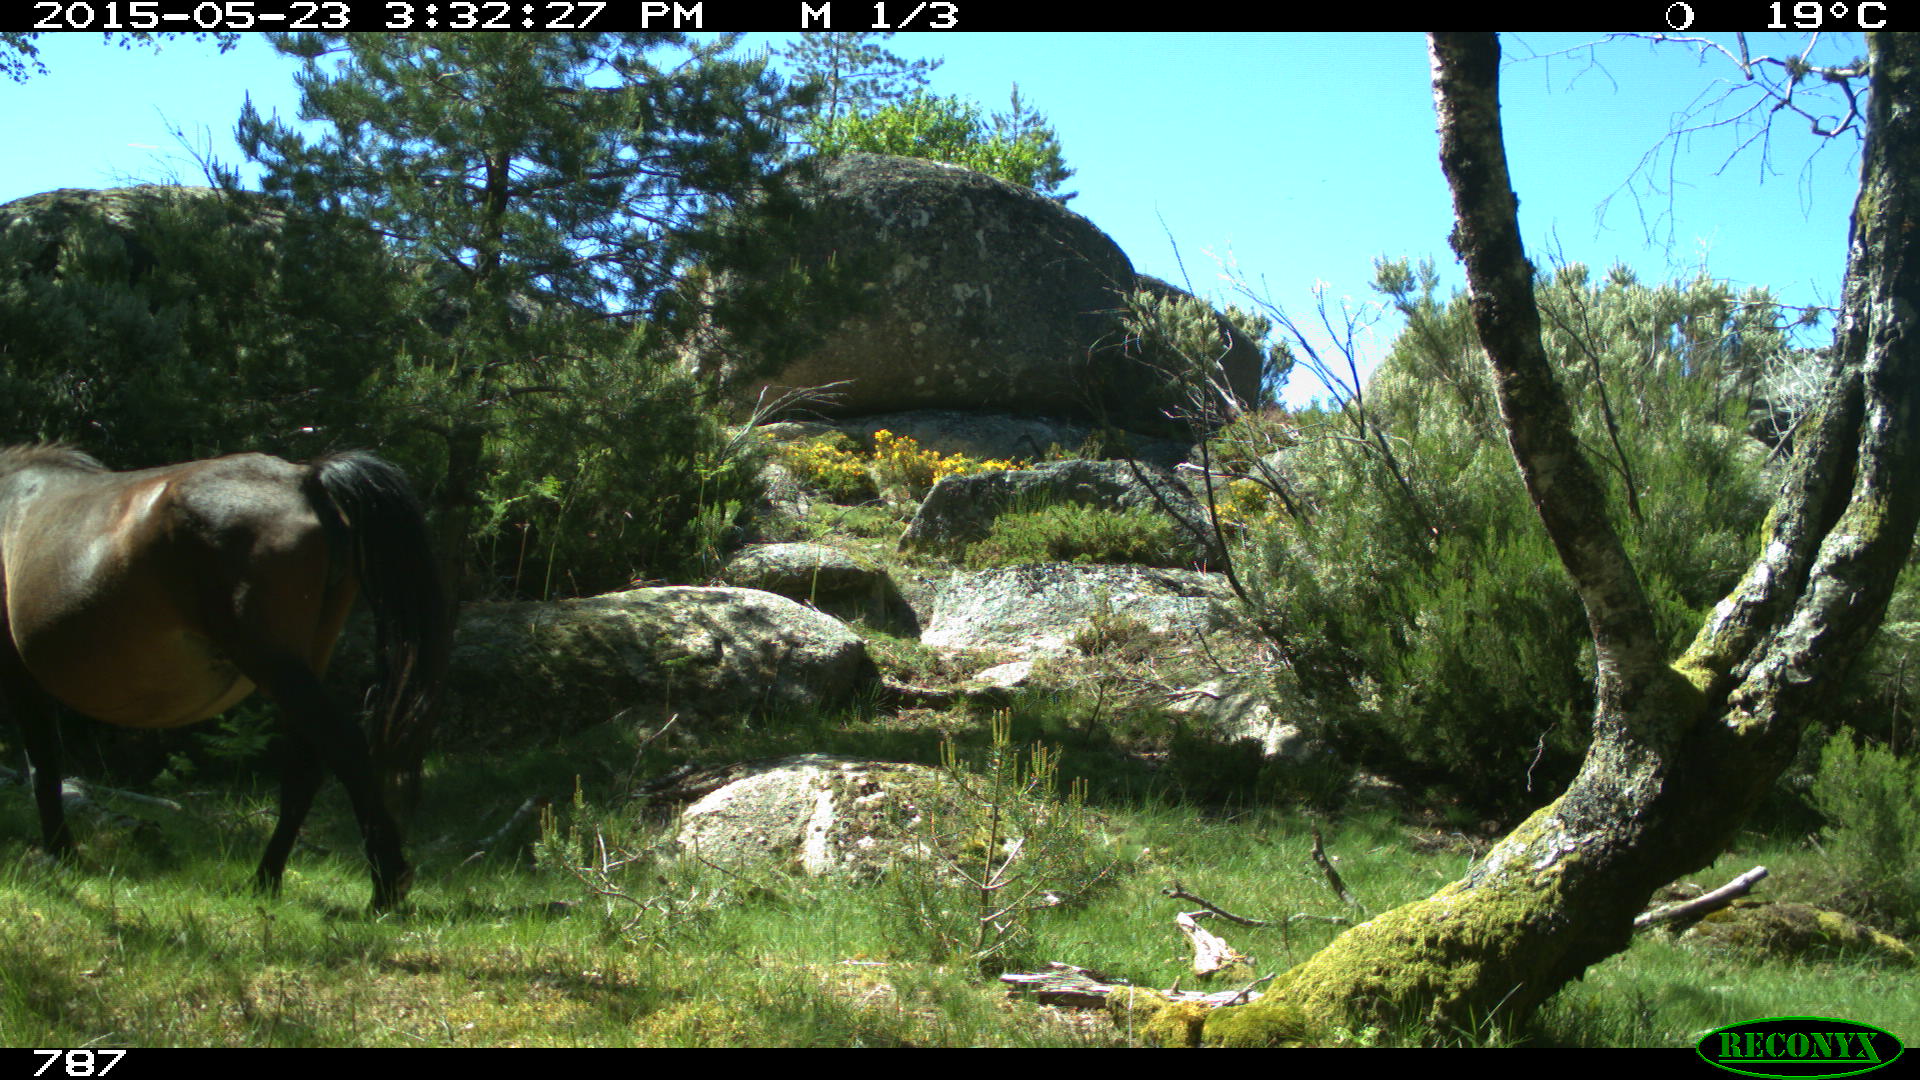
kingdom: Animalia
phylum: Chordata
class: Mammalia
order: Perissodactyla
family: Equidae
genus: Equus
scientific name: Equus caballus
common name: Horse
